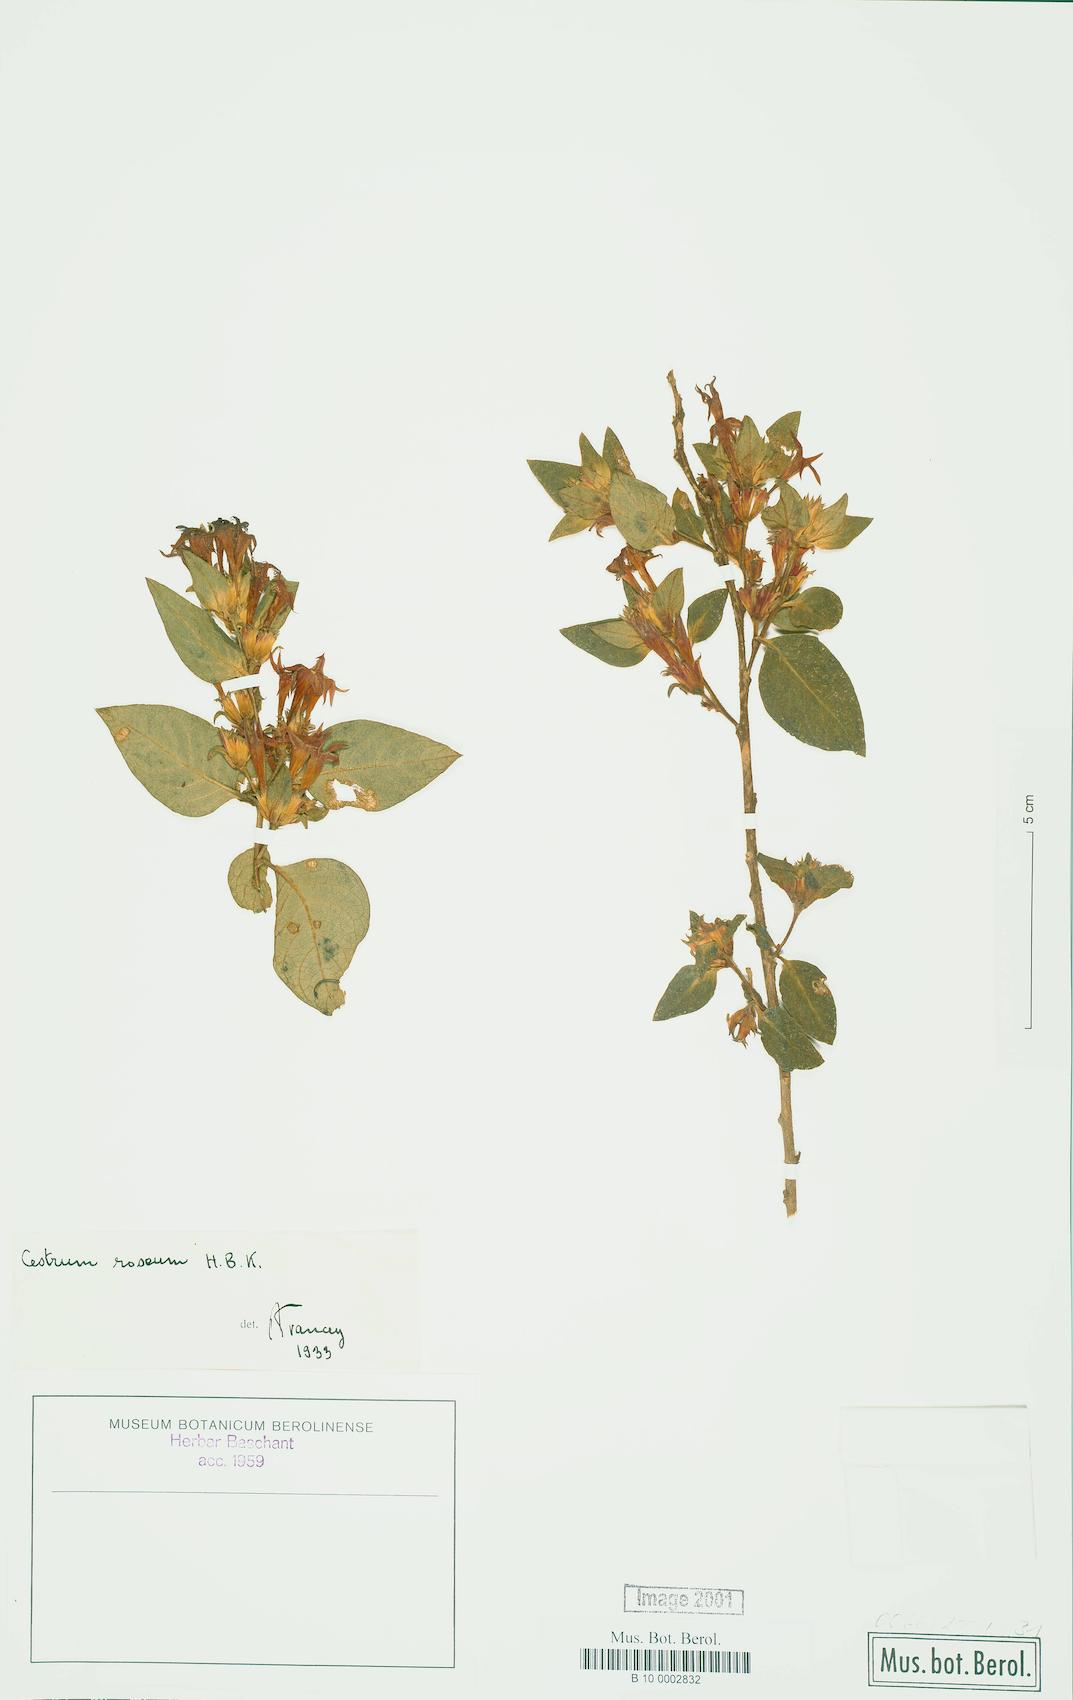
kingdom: Plantae
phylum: Tracheophyta
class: Magnoliopsida
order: Solanales
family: Solanaceae
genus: Cestrum
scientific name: Cestrum roseum
